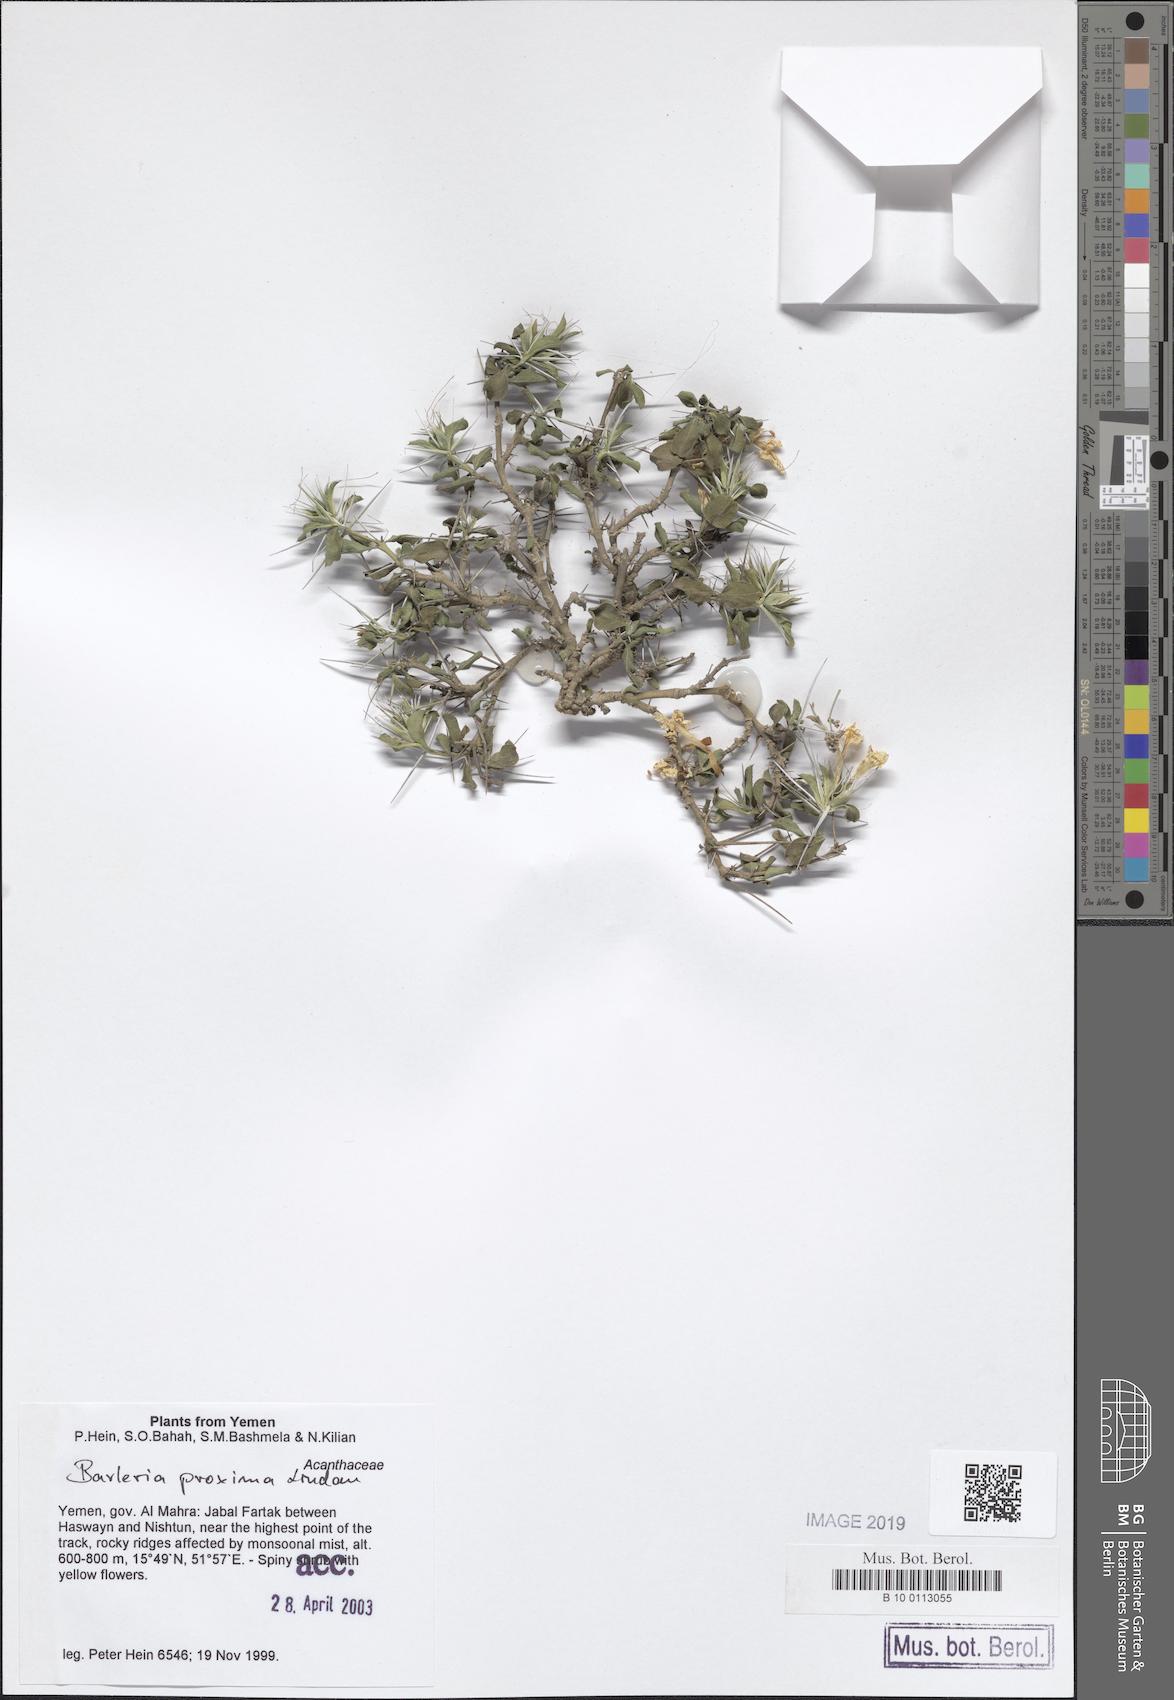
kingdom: Plantae
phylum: Tracheophyta
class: Magnoliopsida
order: Lamiales
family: Acanthaceae
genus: Barleria
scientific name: Barleria proxima
